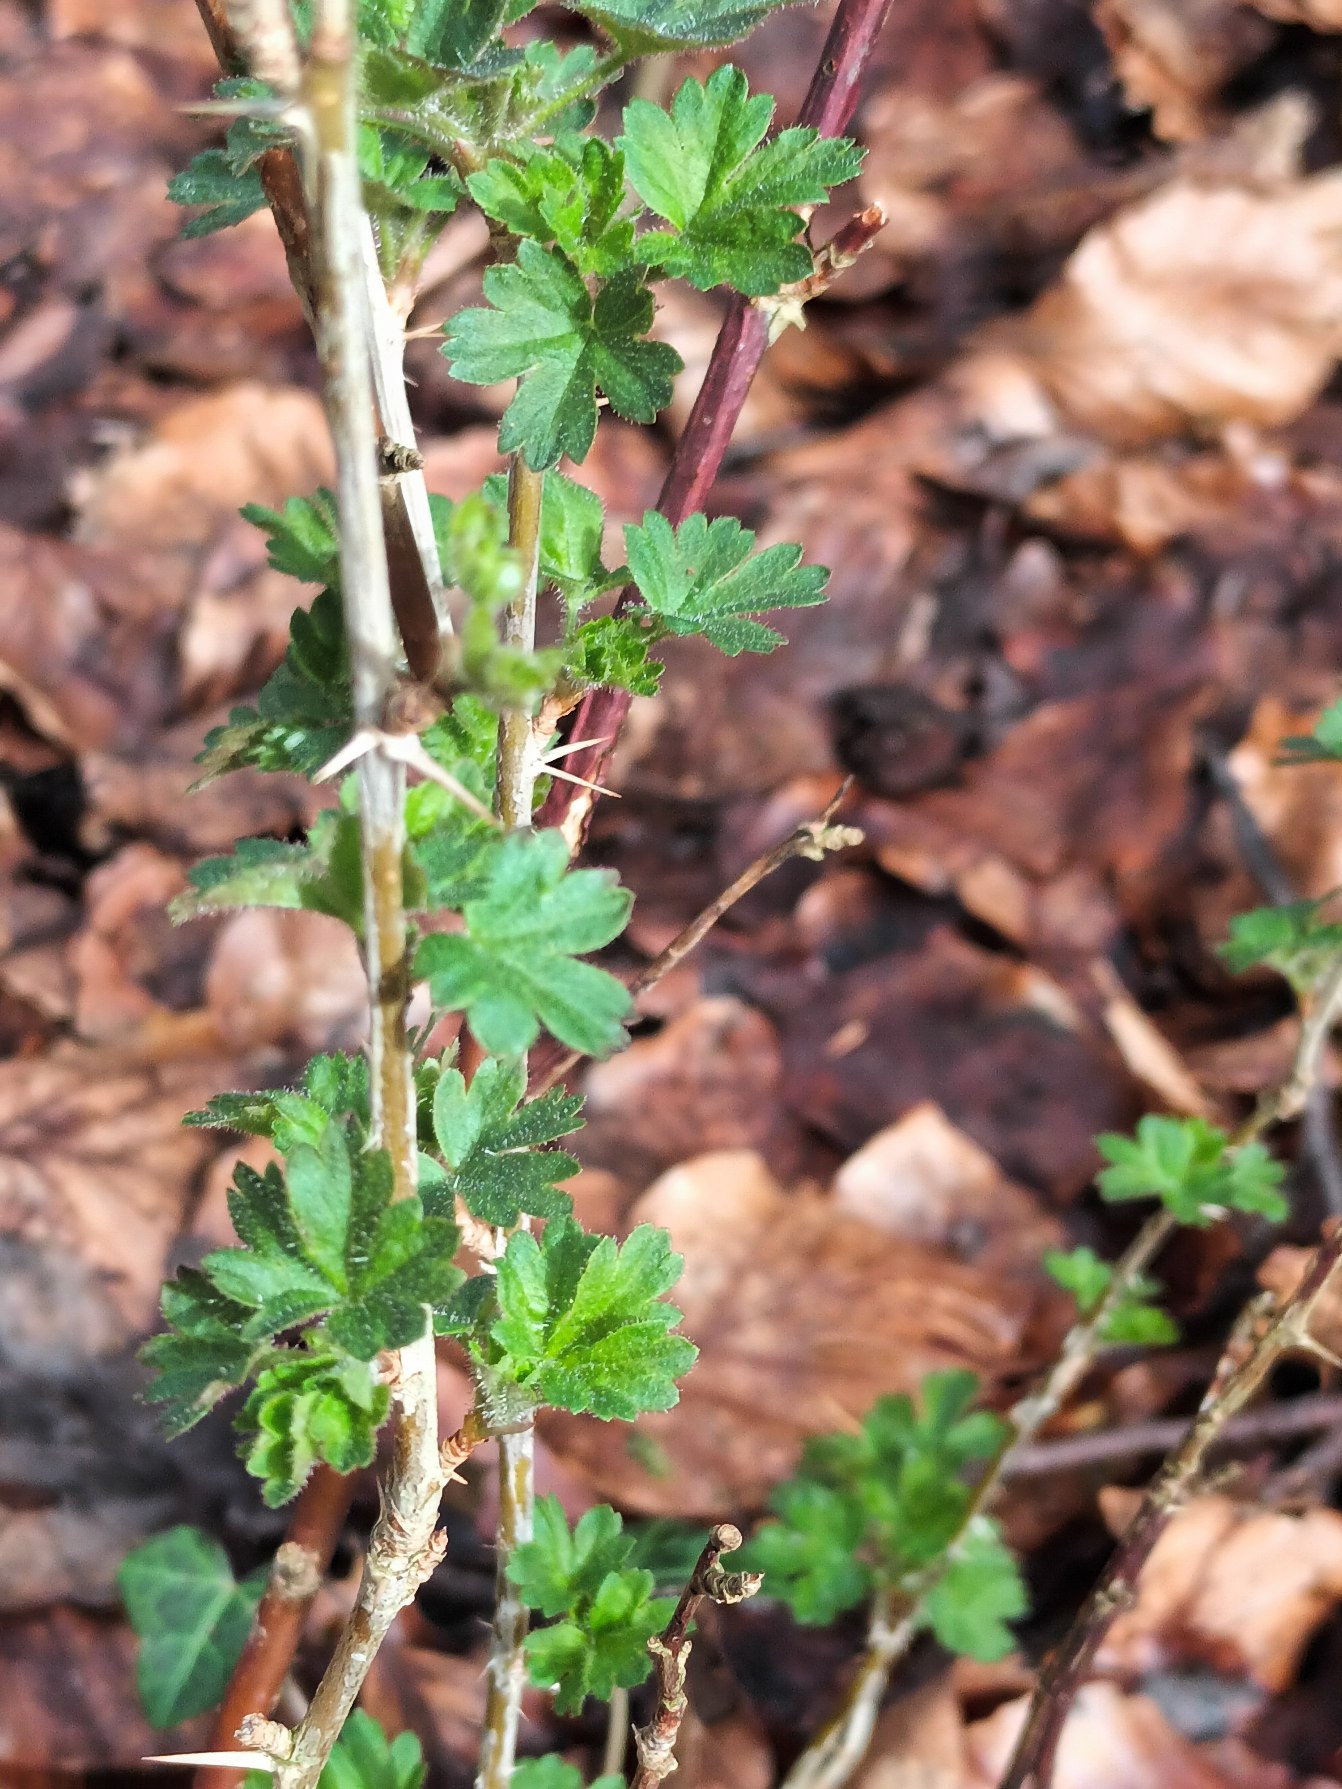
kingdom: Plantae
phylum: Tracheophyta
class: Magnoliopsida
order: Saxifragales
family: Grossulariaceae
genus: Ribes
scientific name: Ribes uva-crispa
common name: Stikkelsbær
